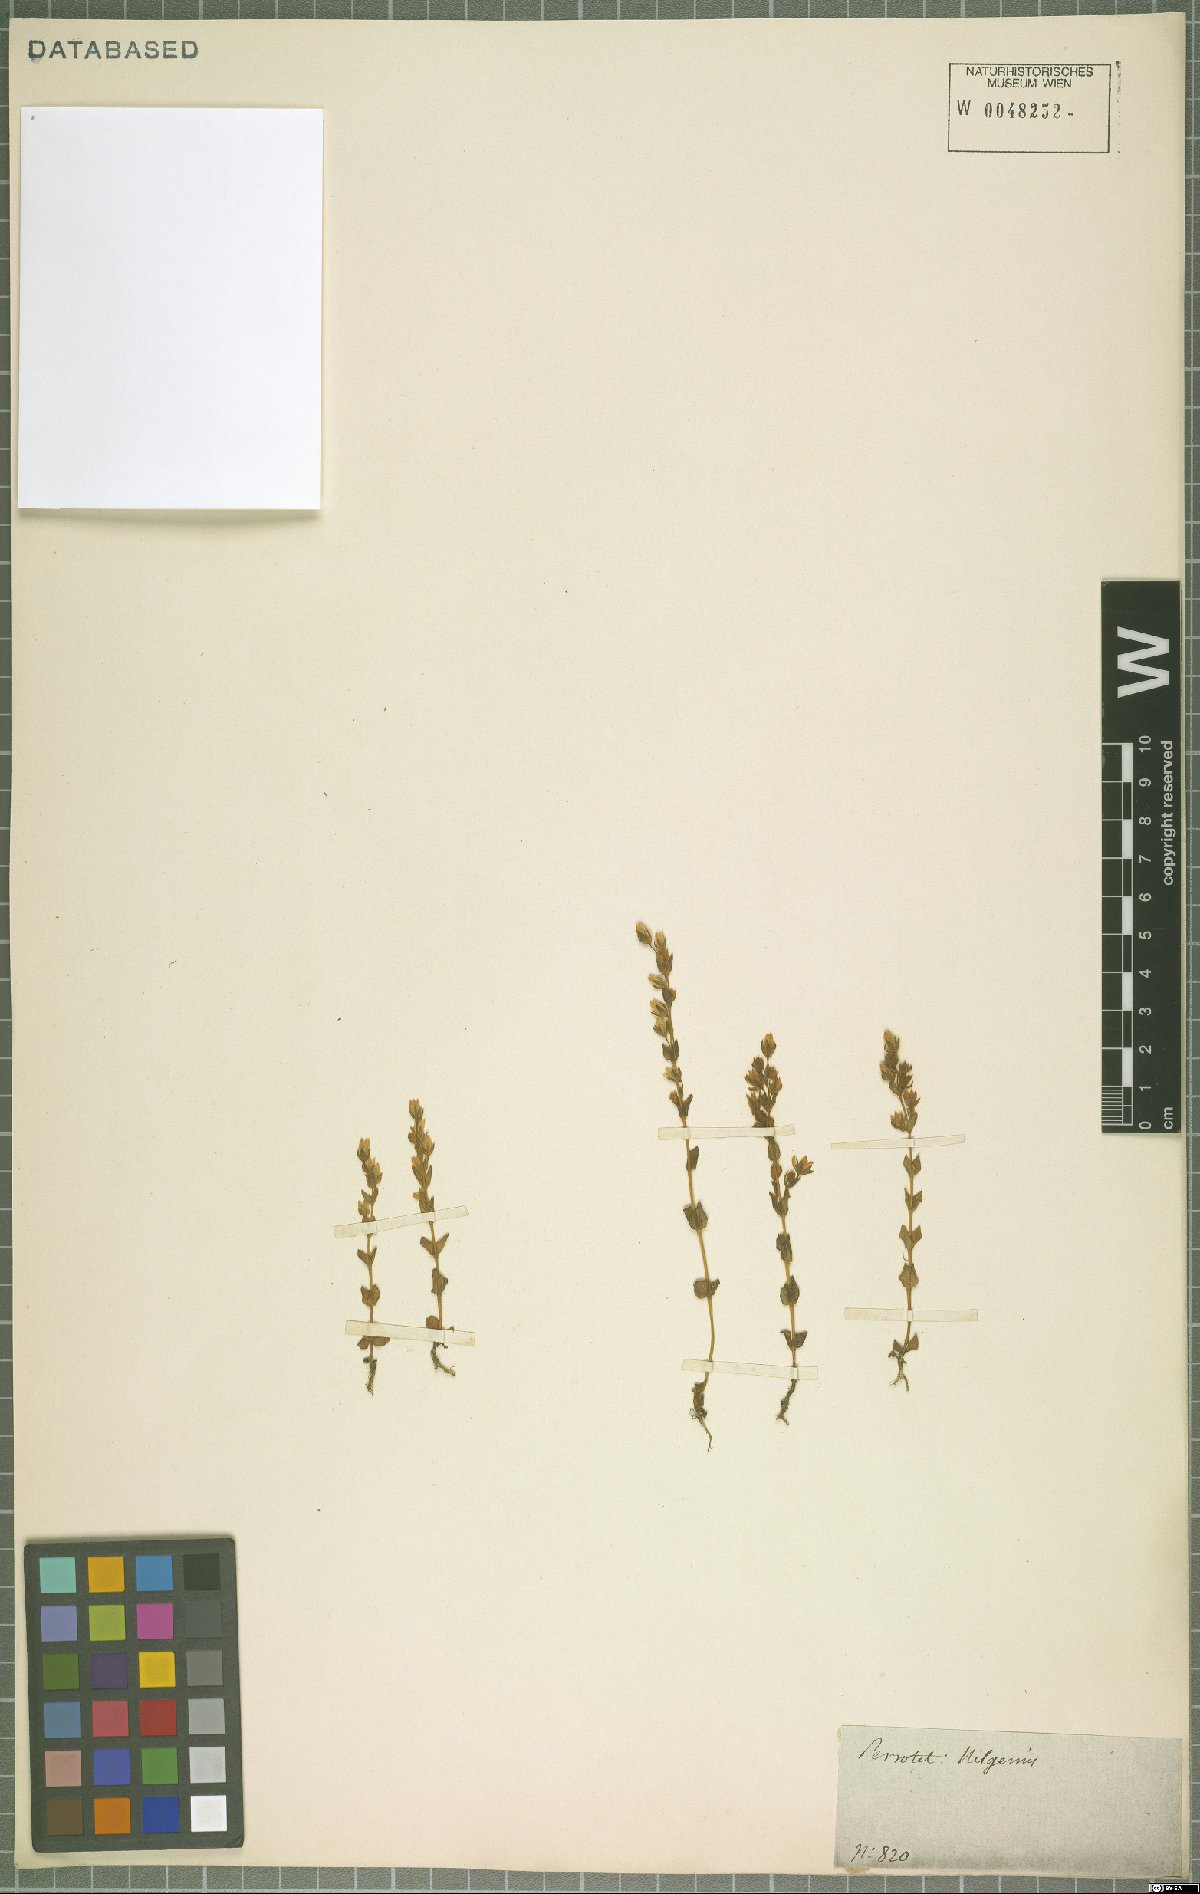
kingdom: Plantae
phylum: Tracheophyta
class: Magnoliopsida
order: Gentianales
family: Gentianaceae
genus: Lomatogonium
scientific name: Lomatogonium minus
